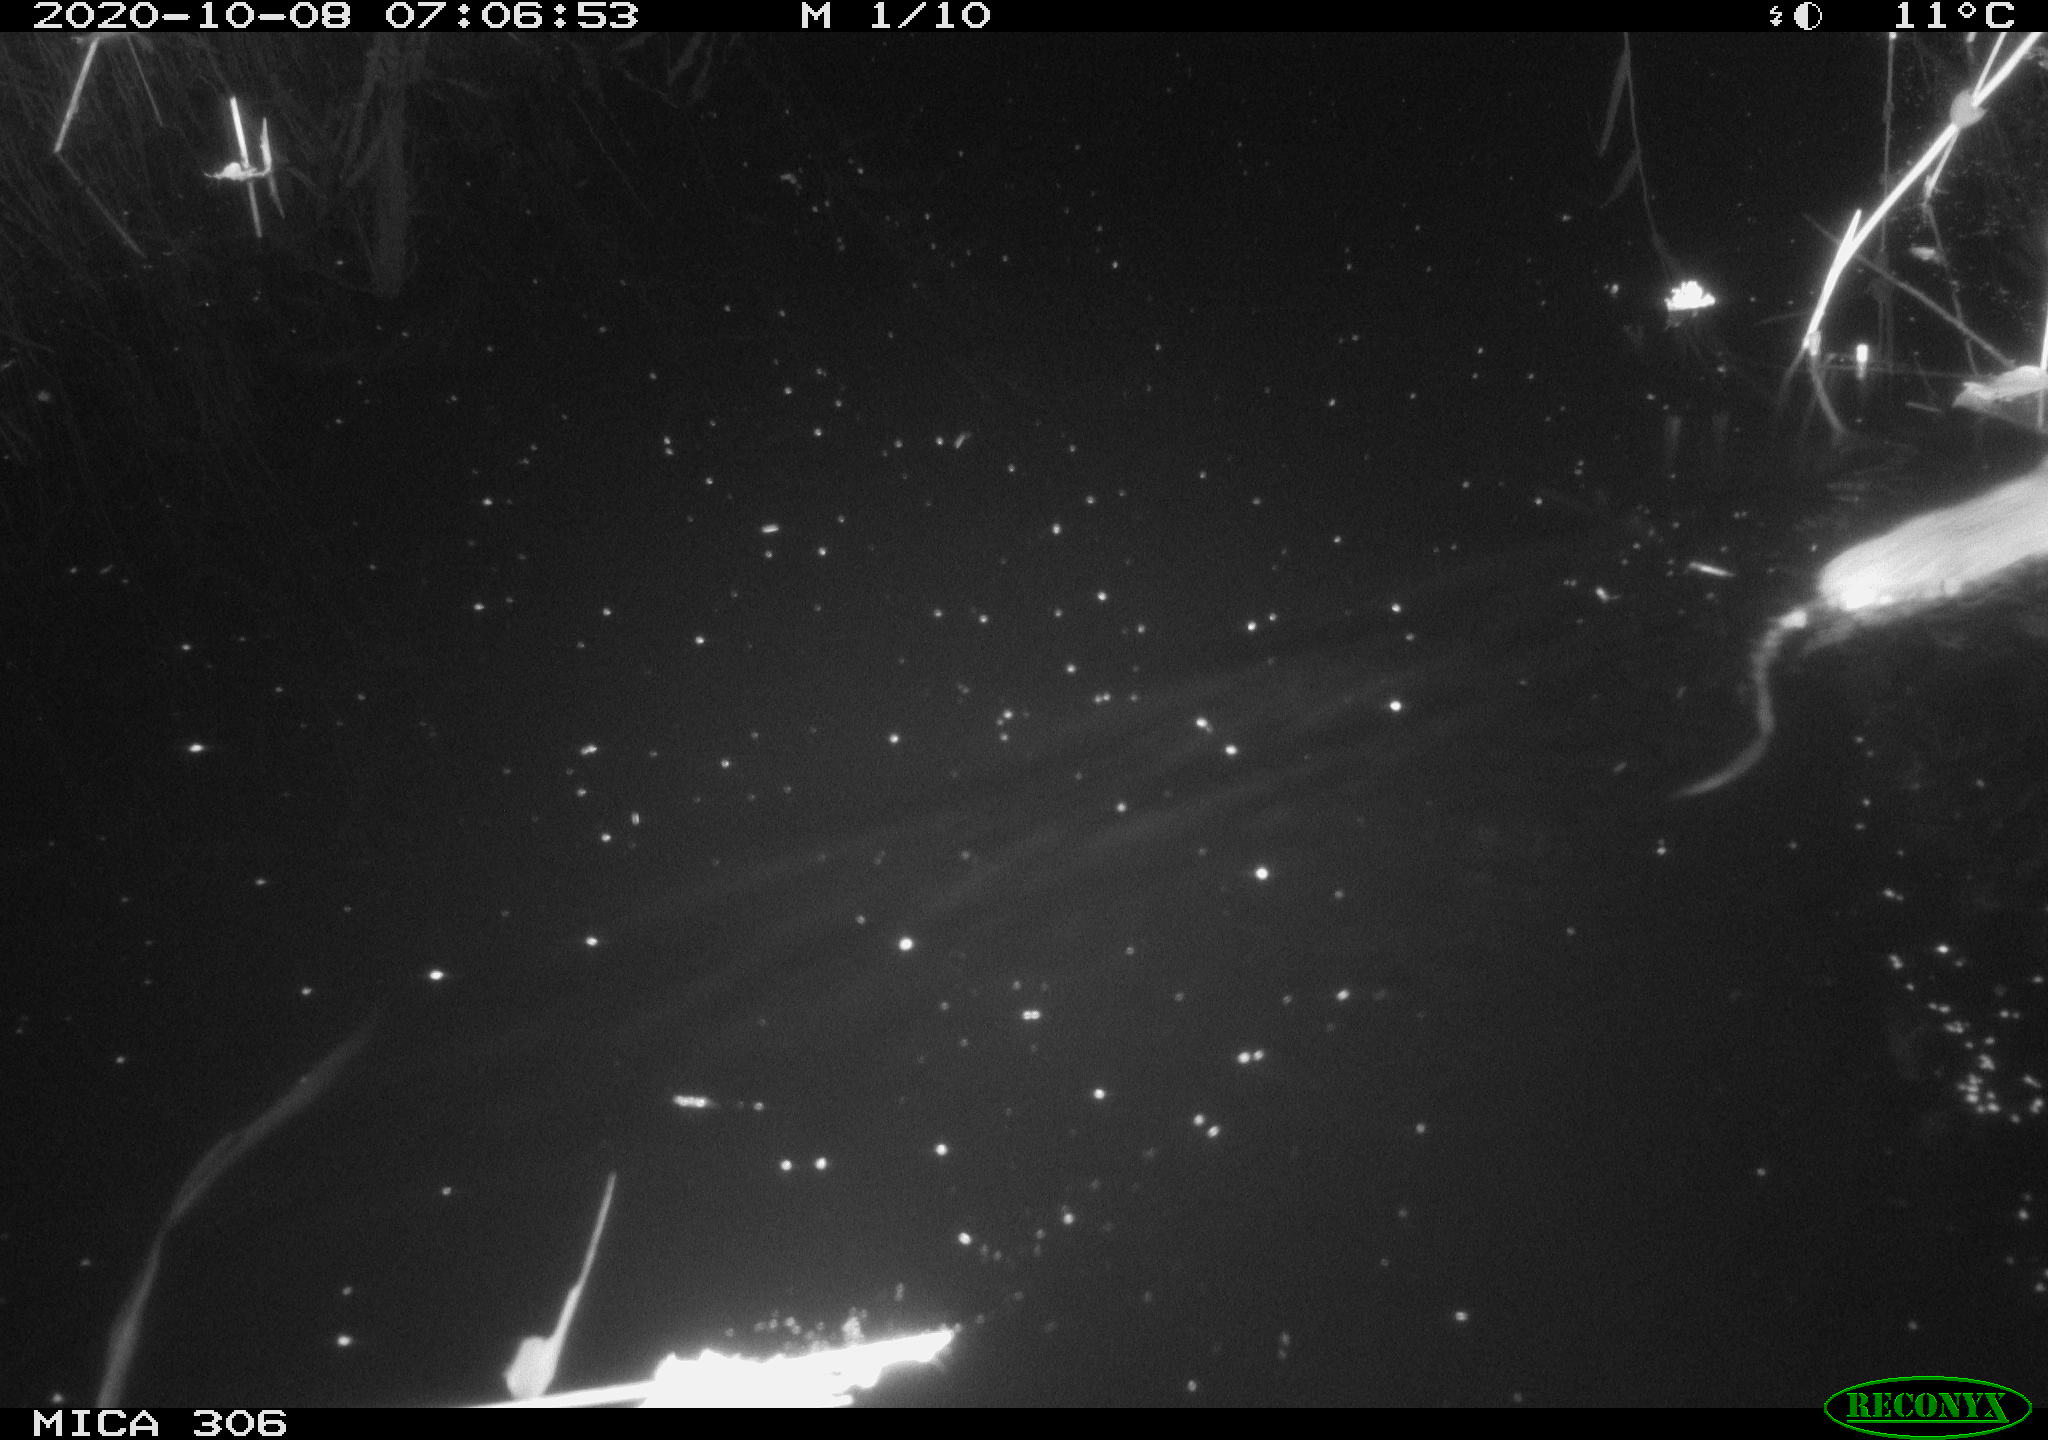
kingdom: Animalia
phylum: Chordata
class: Mammalia
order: Rodentia
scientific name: Rodentia
